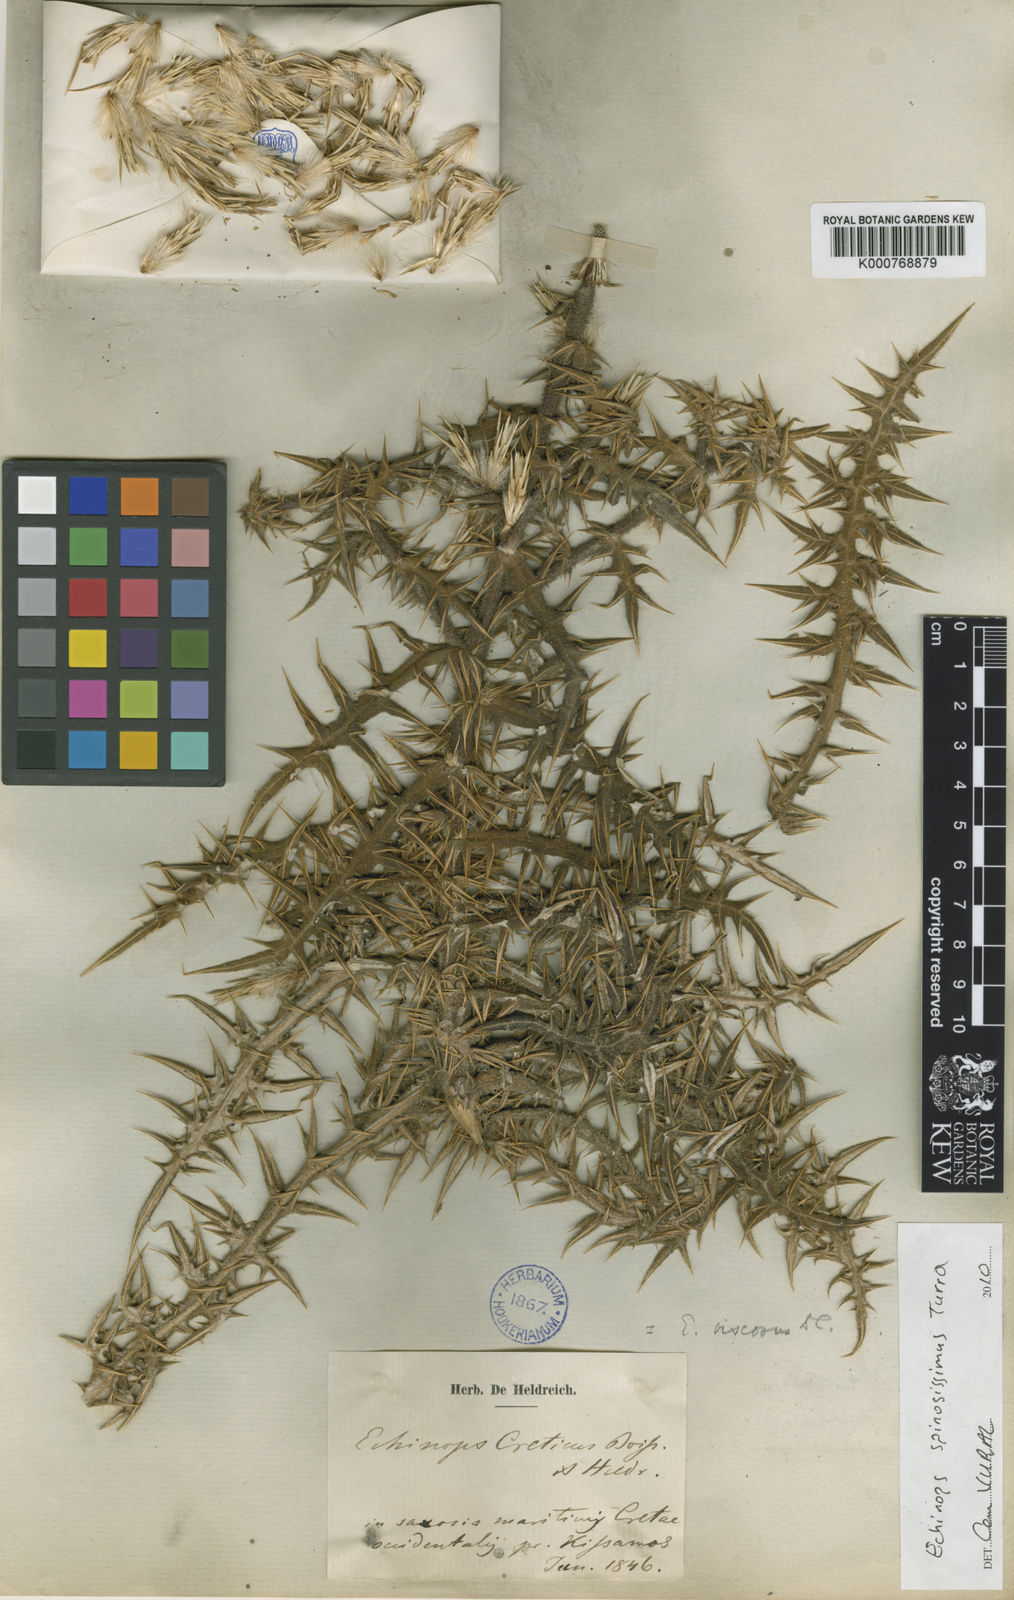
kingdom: Plantae
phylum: Tracheophyta
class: Magnoliopsida
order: Asterales
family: Asteraceae
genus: Echinops
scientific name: Echinops spinosissimus
